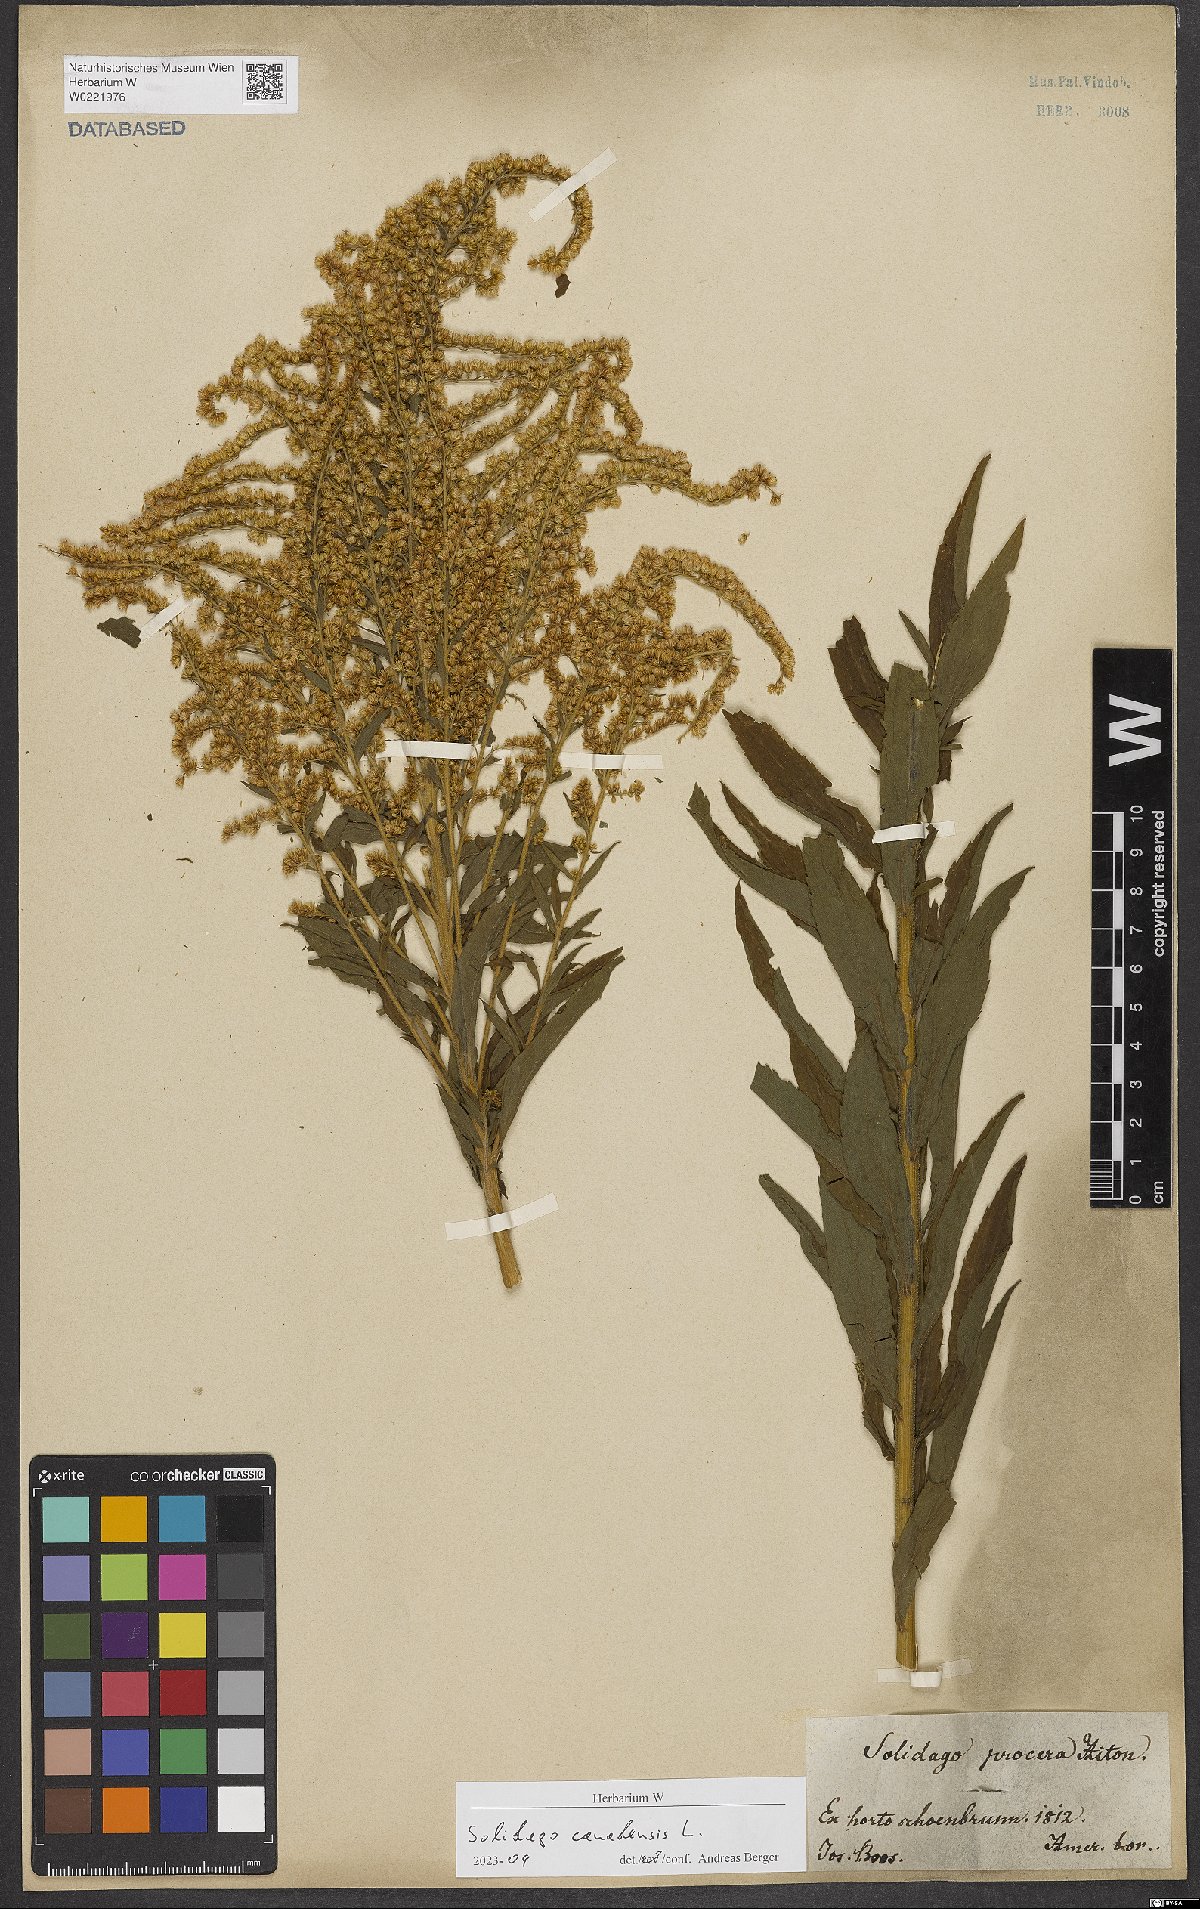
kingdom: Plantae
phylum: Tracheophyta
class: Magnoliopsida
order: Asterales
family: Asteraceae
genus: Solidago
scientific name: Solidago canadensis
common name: Canada goldenrod
